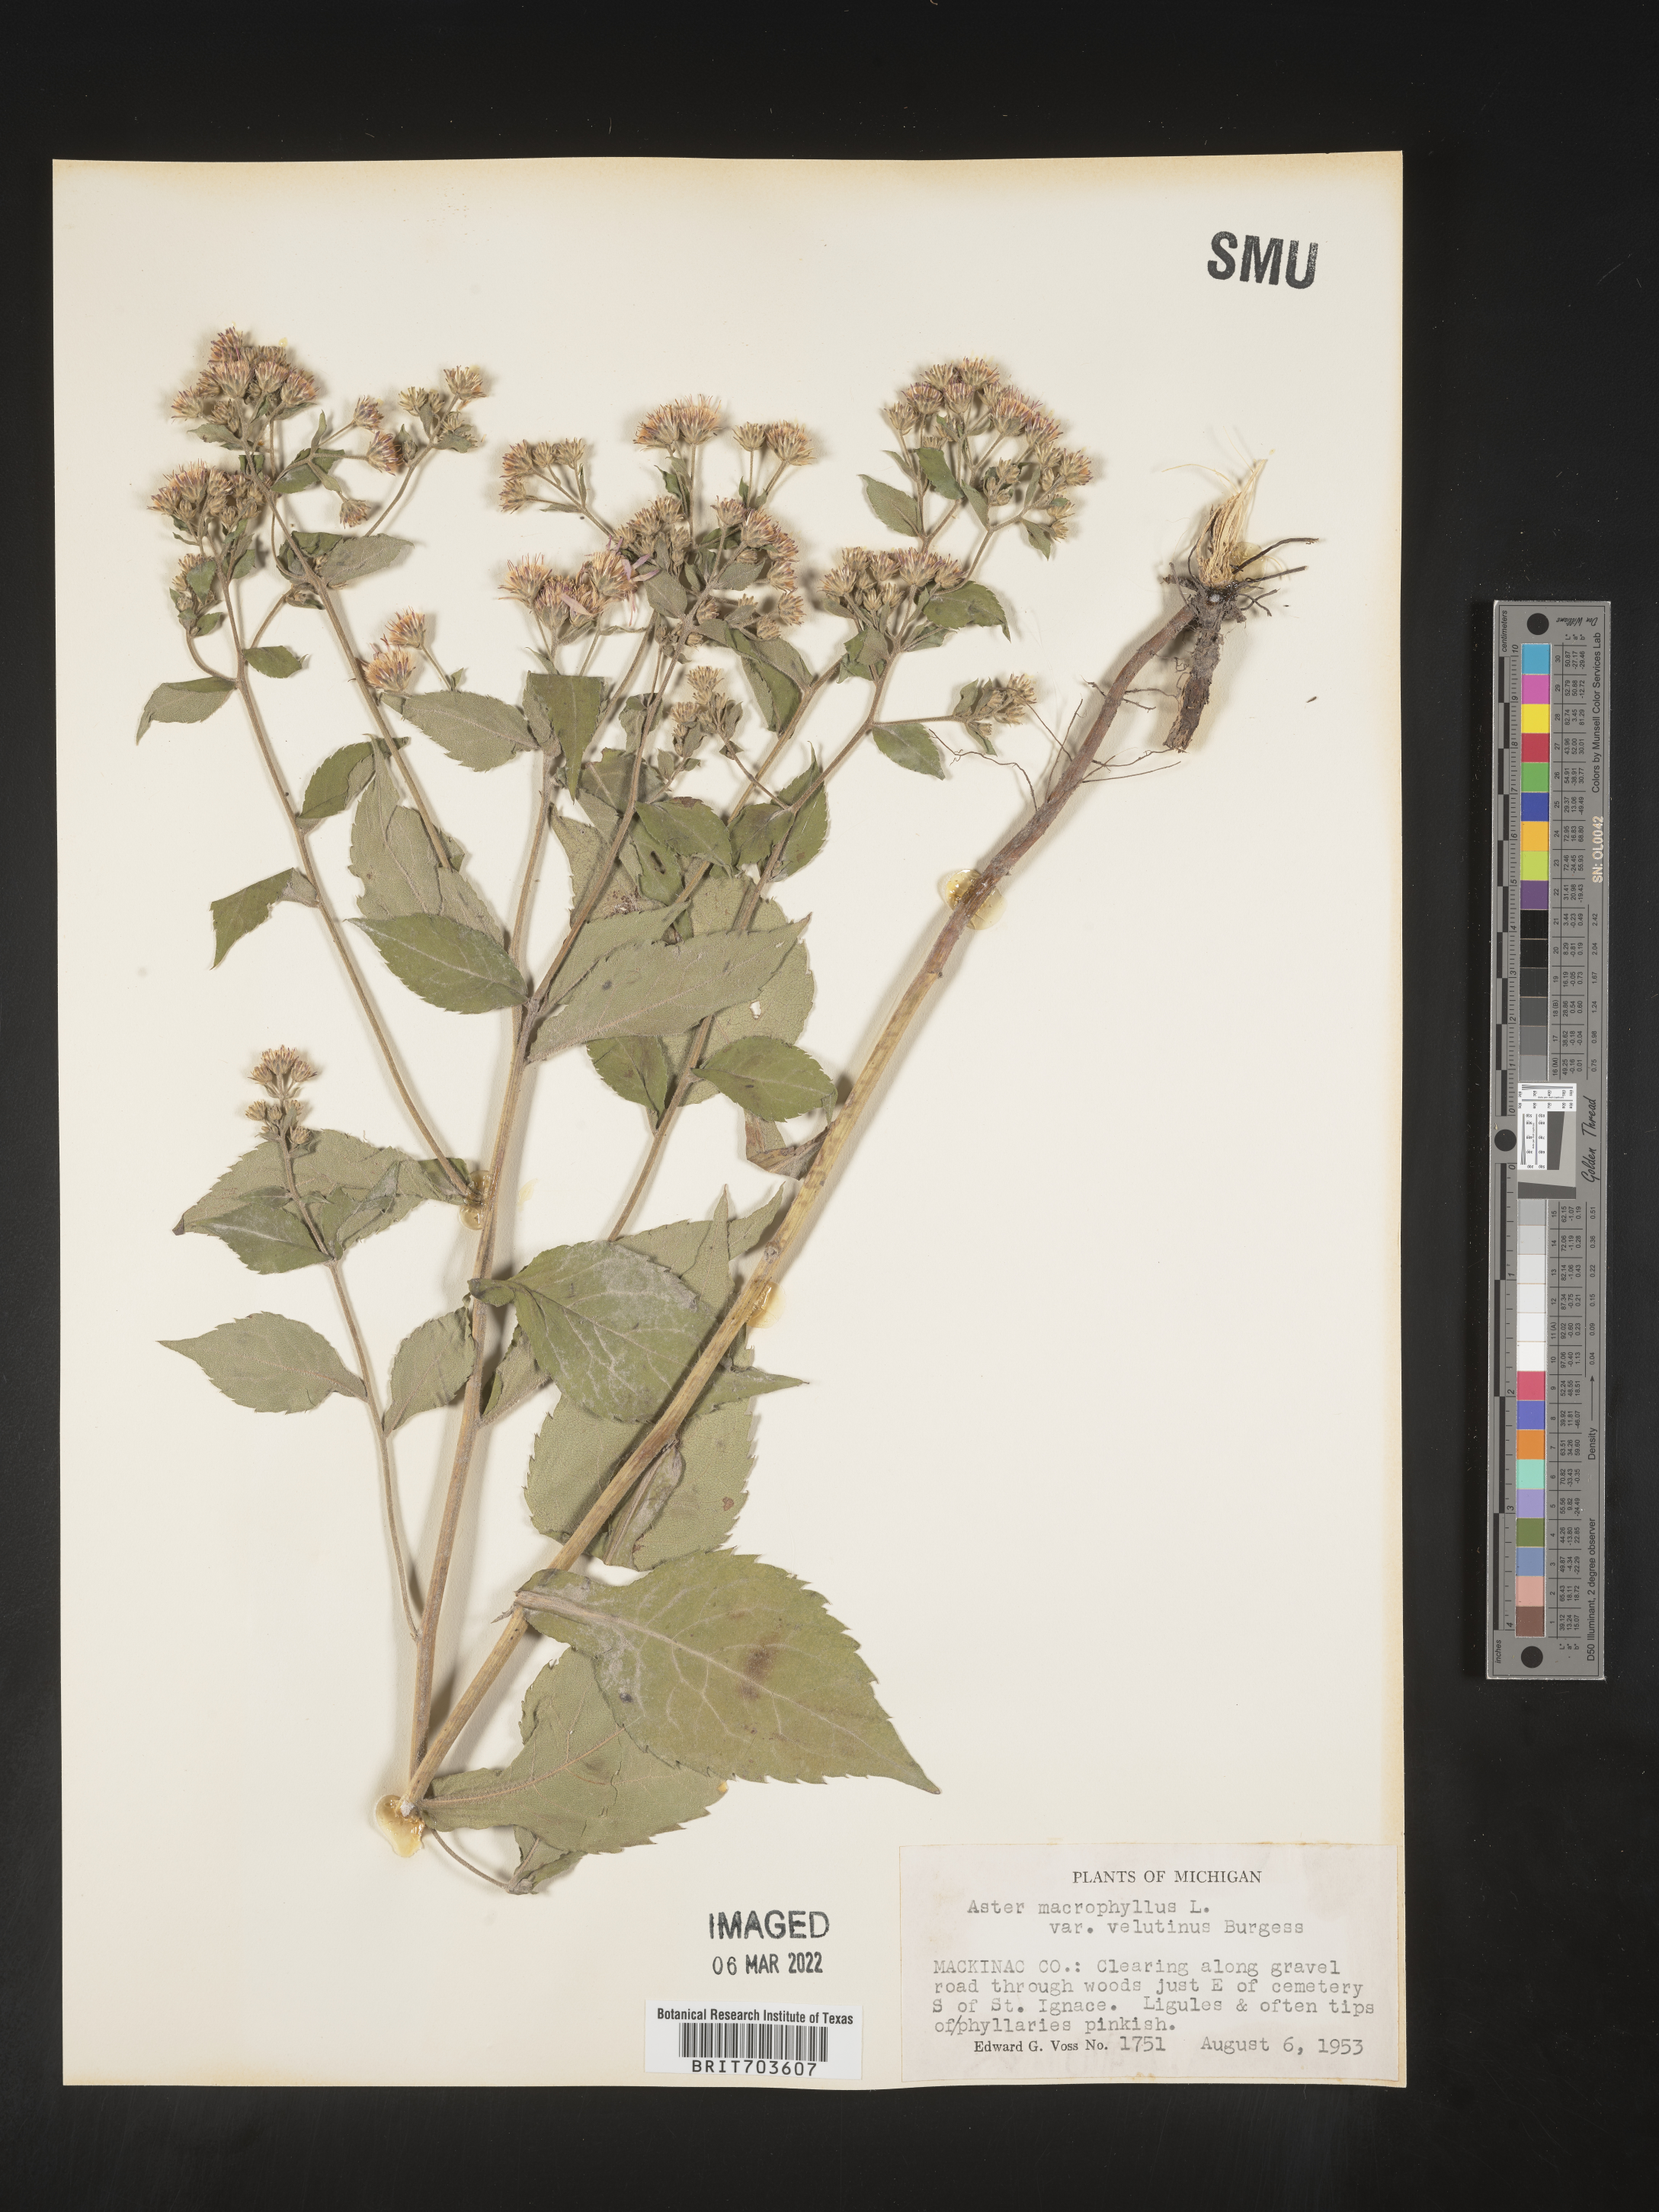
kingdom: Plantae
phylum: Tracheophyta
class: Magnoliopsida
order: Asterales
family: Asteraceae
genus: Eurybia
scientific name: Eurybia macrophylla
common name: Big-leaved aster
